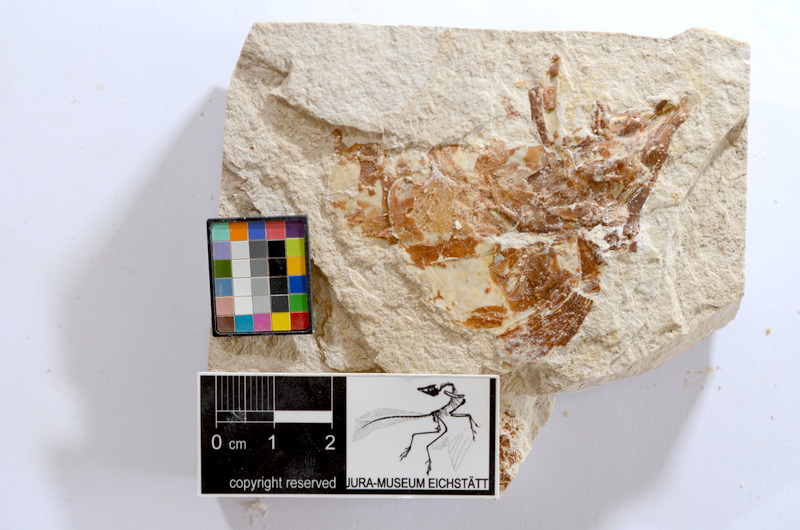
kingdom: Animalia
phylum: Chordata
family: Ascalaboidae
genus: Tharsis
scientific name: Tharsis dubius
